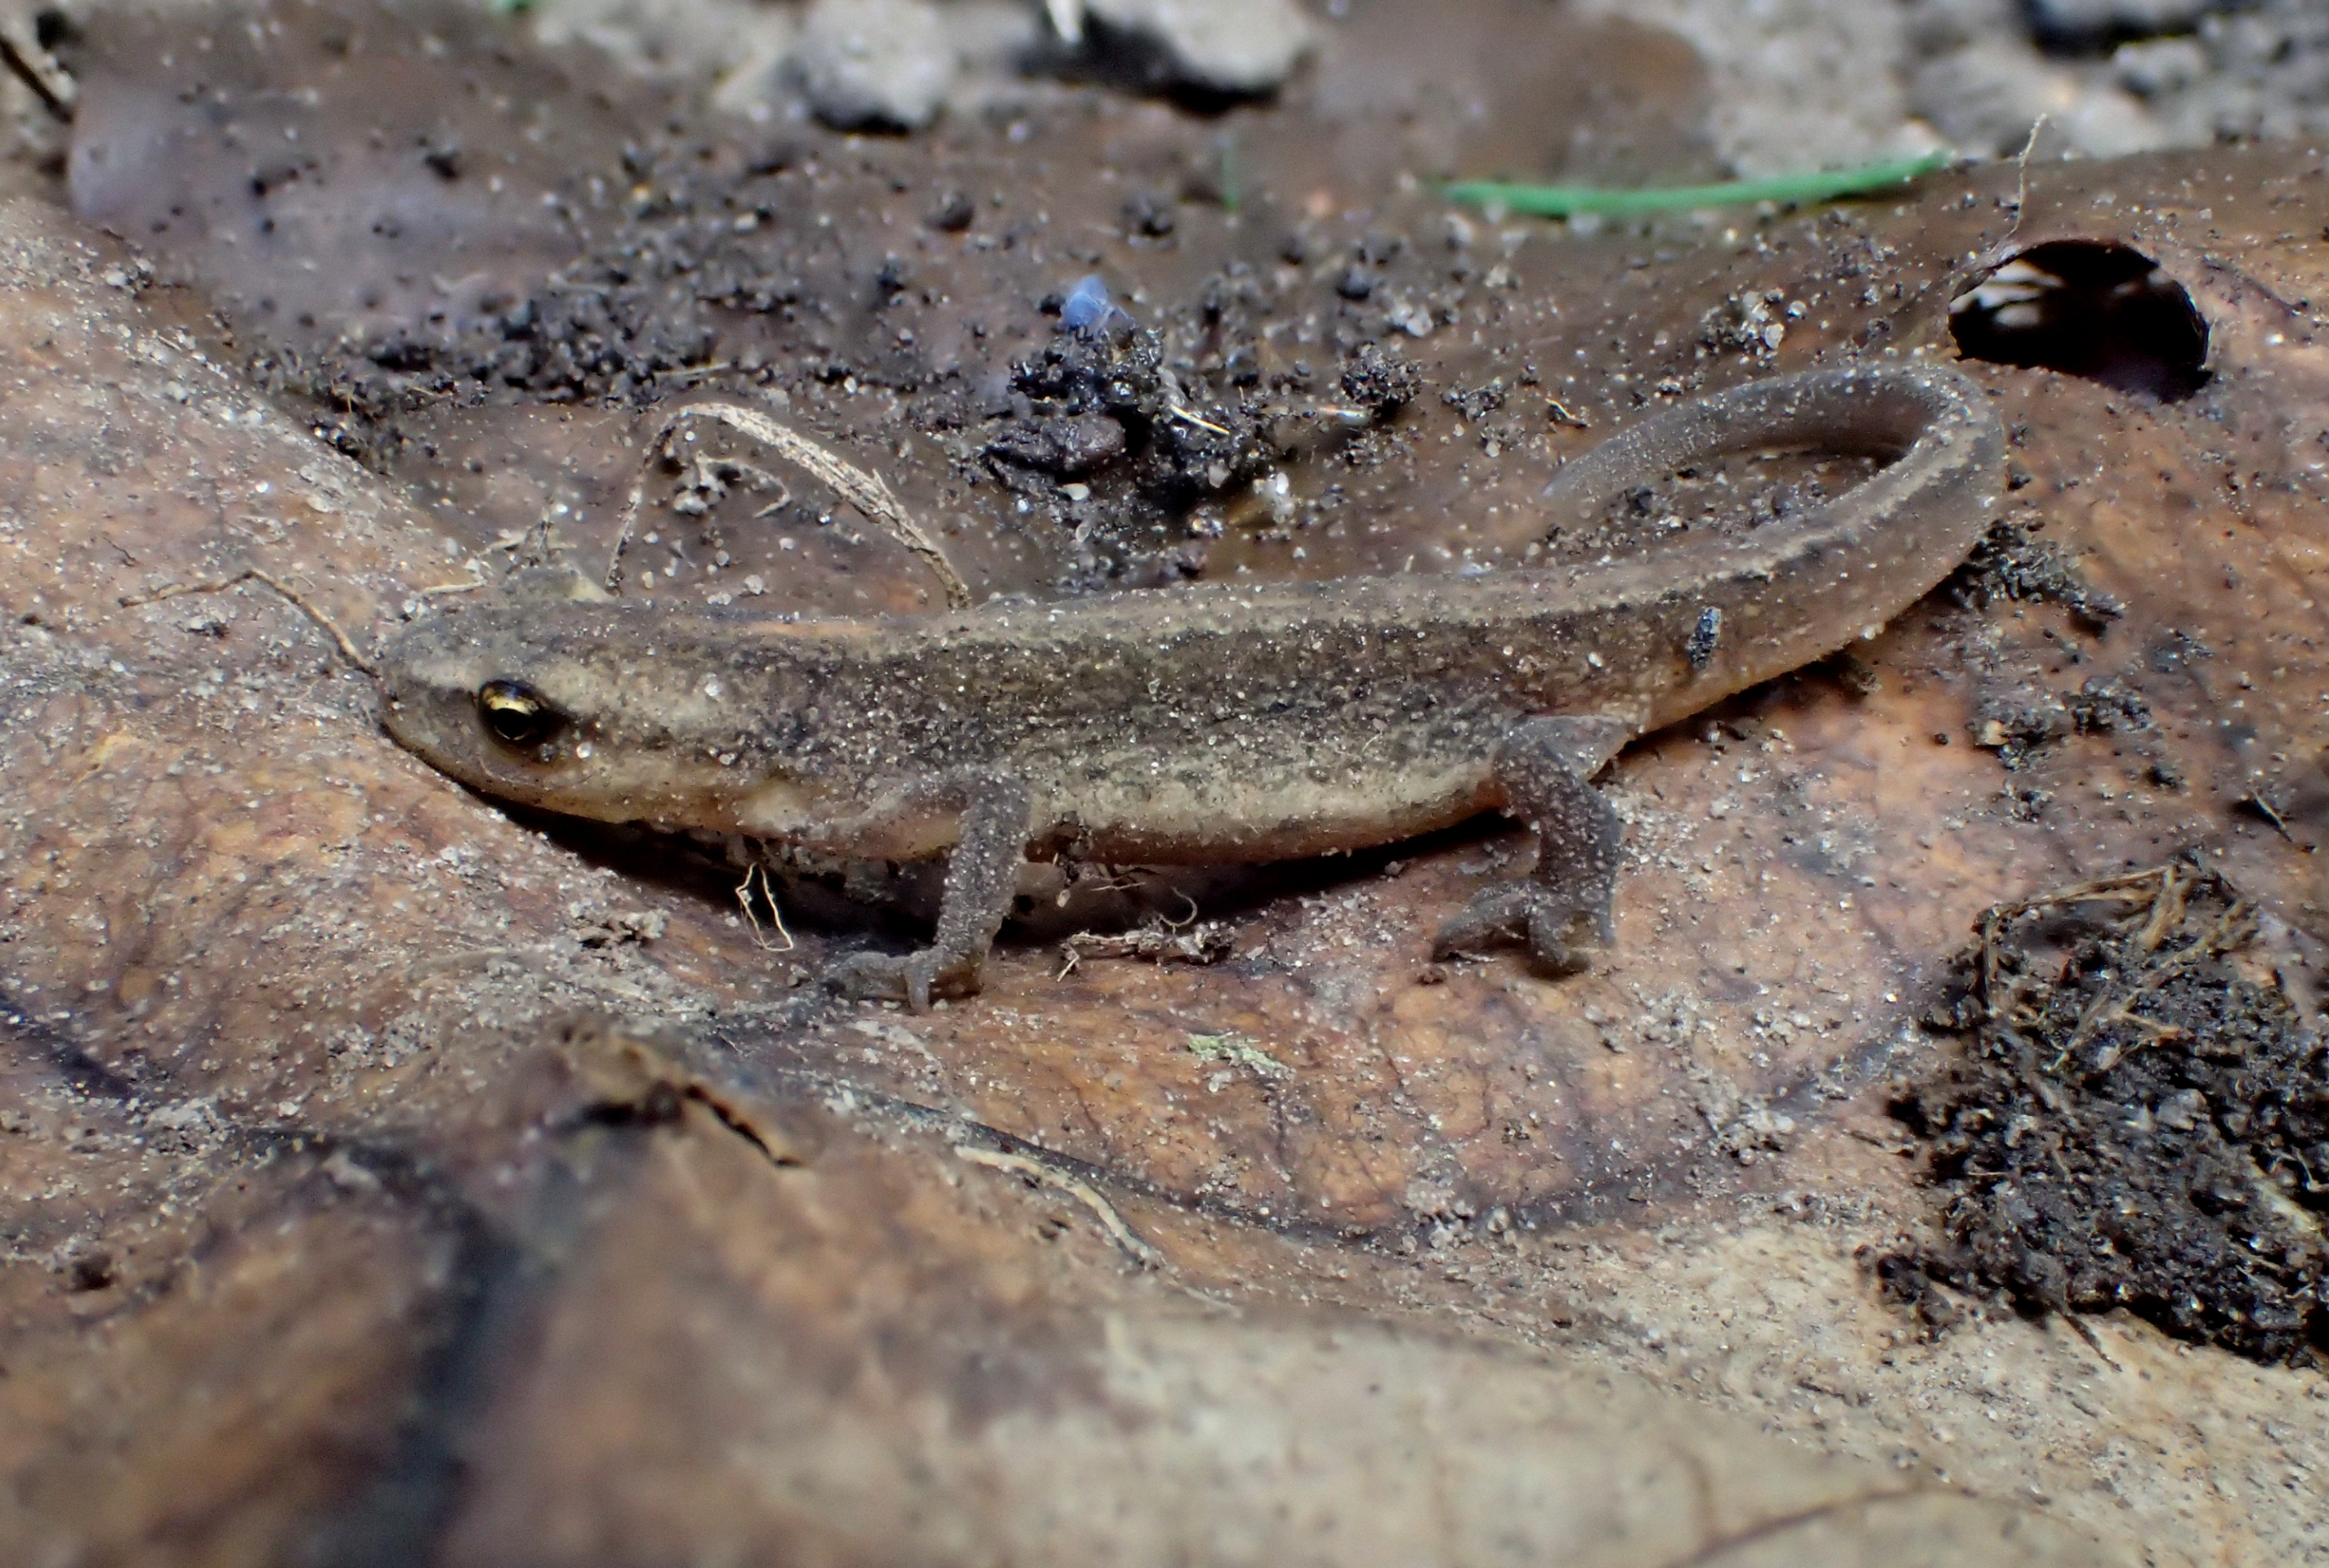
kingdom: Animalia
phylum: Chordata
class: Amphibia
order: Caudata
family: Salamandridae
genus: Lissotriton
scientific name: Lissotriton vulgaris
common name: Lille vandsalamander
